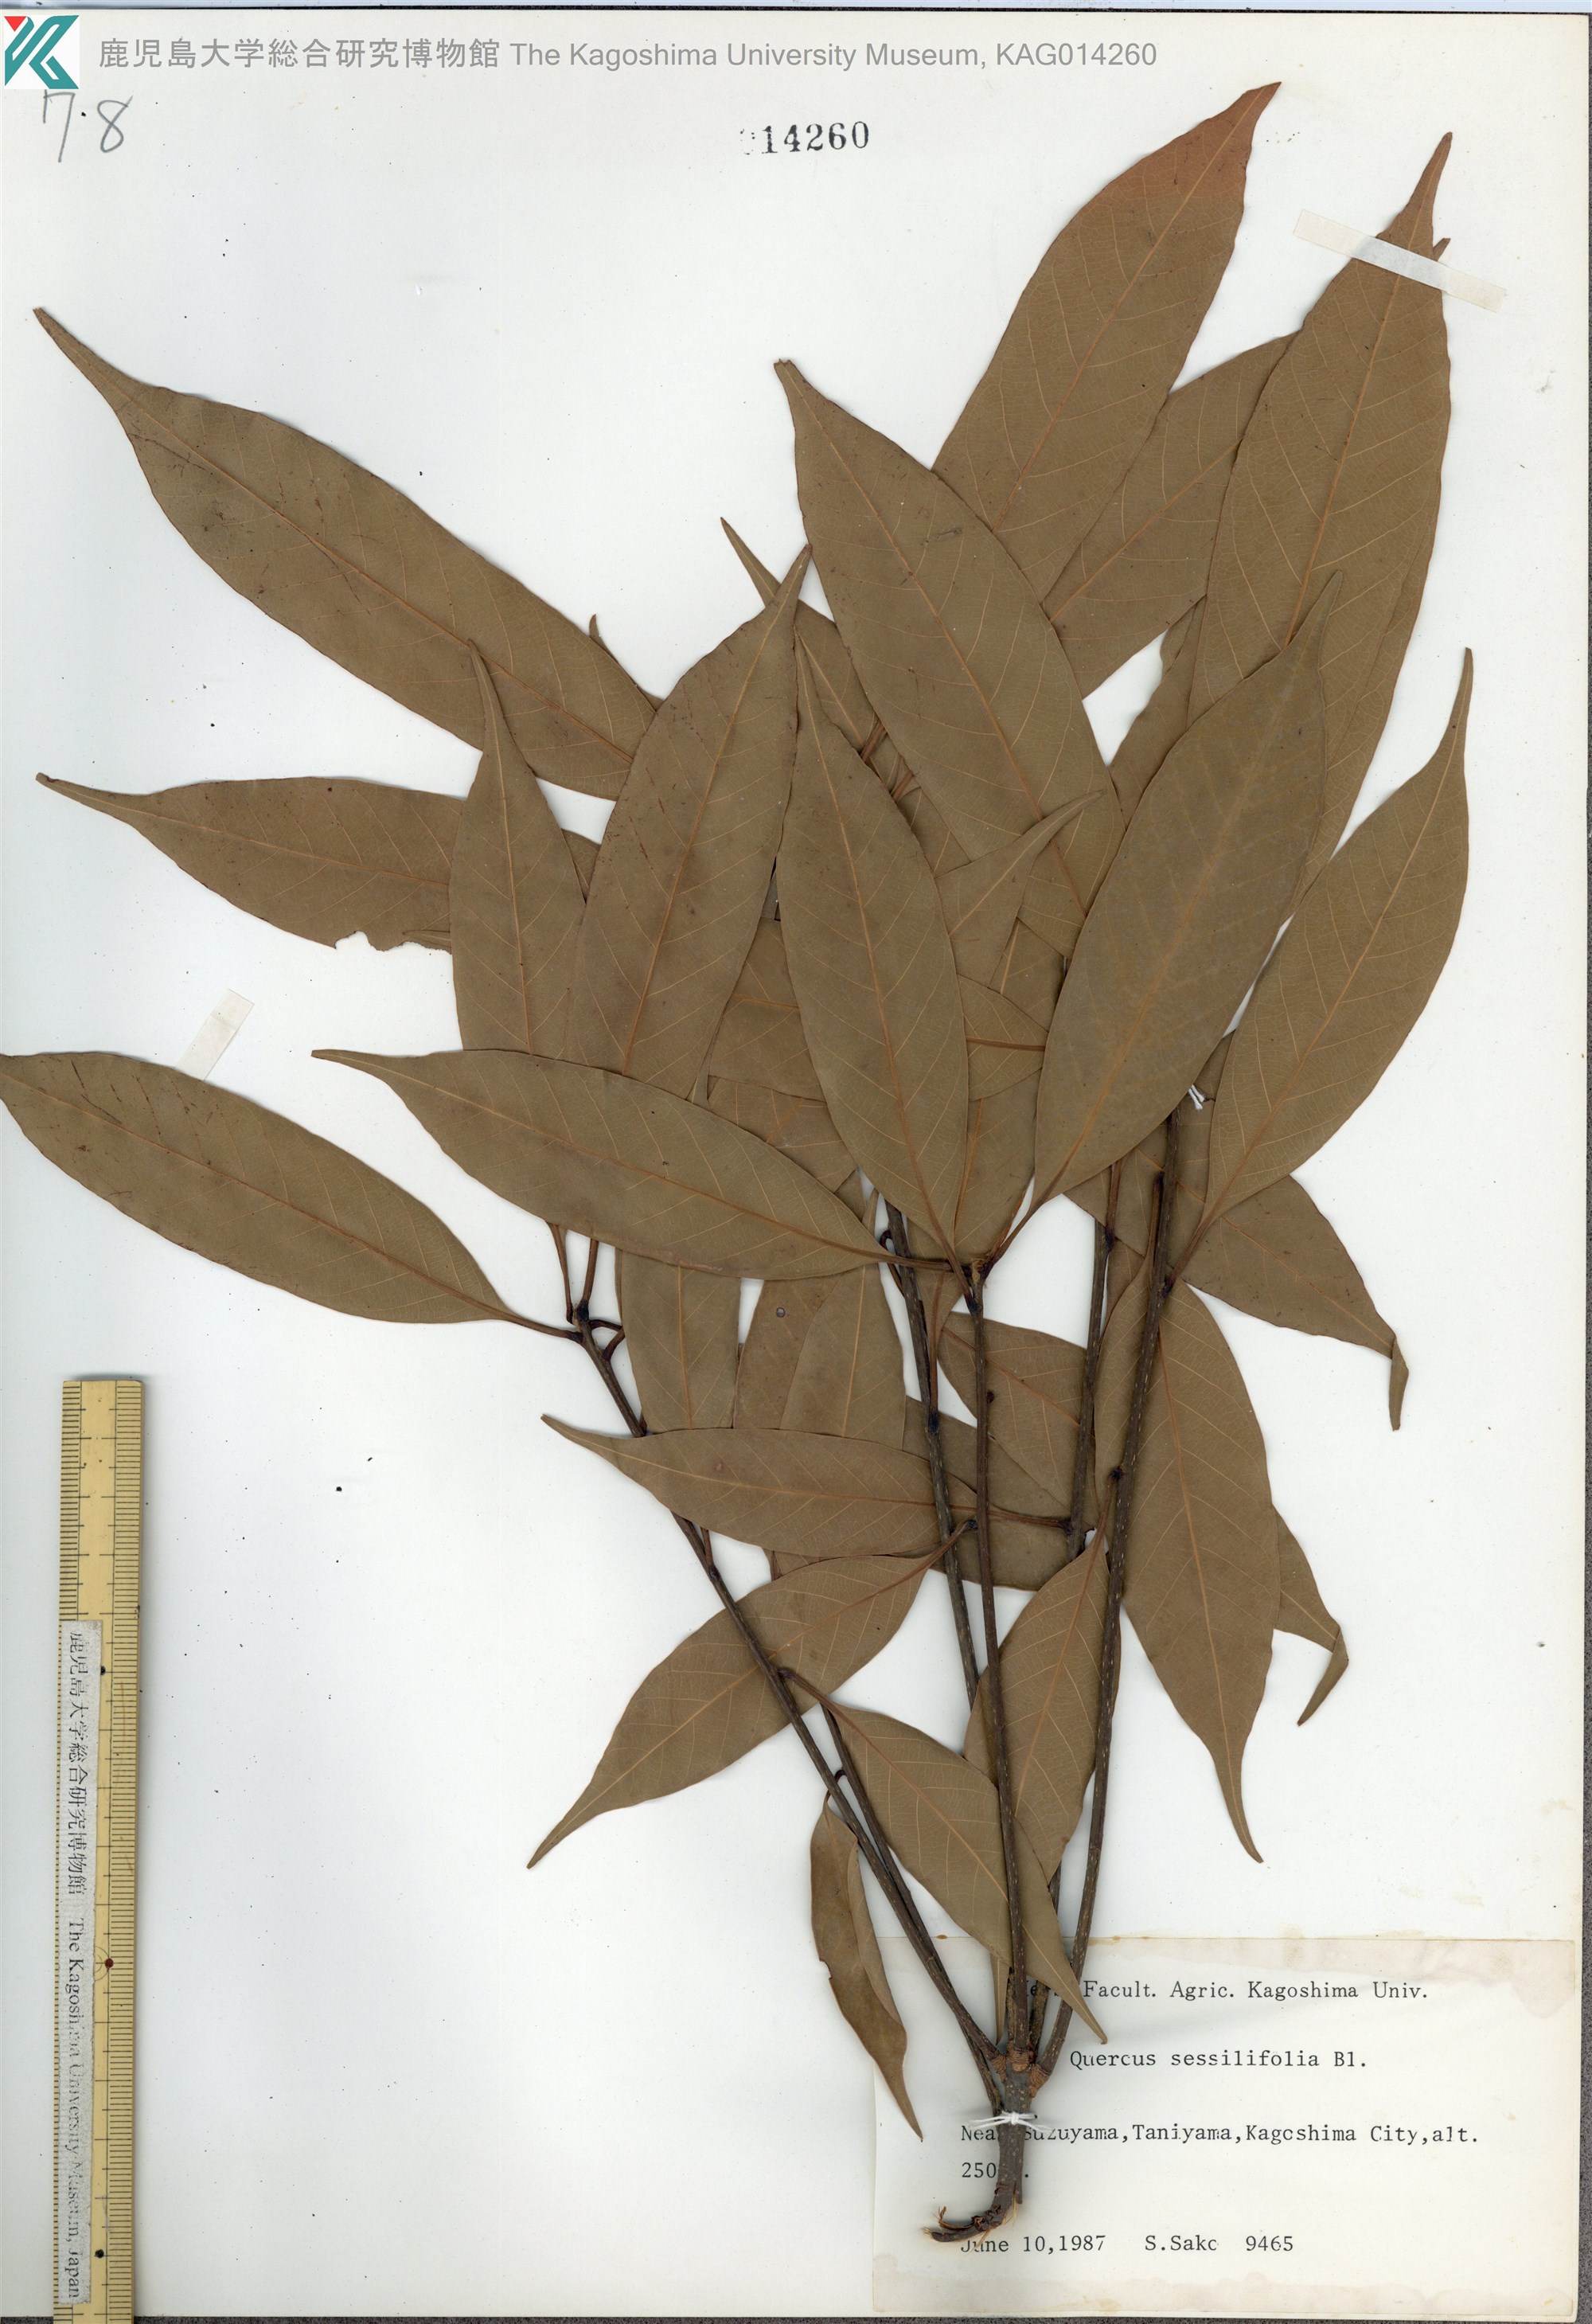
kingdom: Plantae
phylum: Tracheophyta
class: Magnoliopsida
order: Fagales
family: Fagaceae
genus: Quercus
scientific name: Quercus sessilifolia
